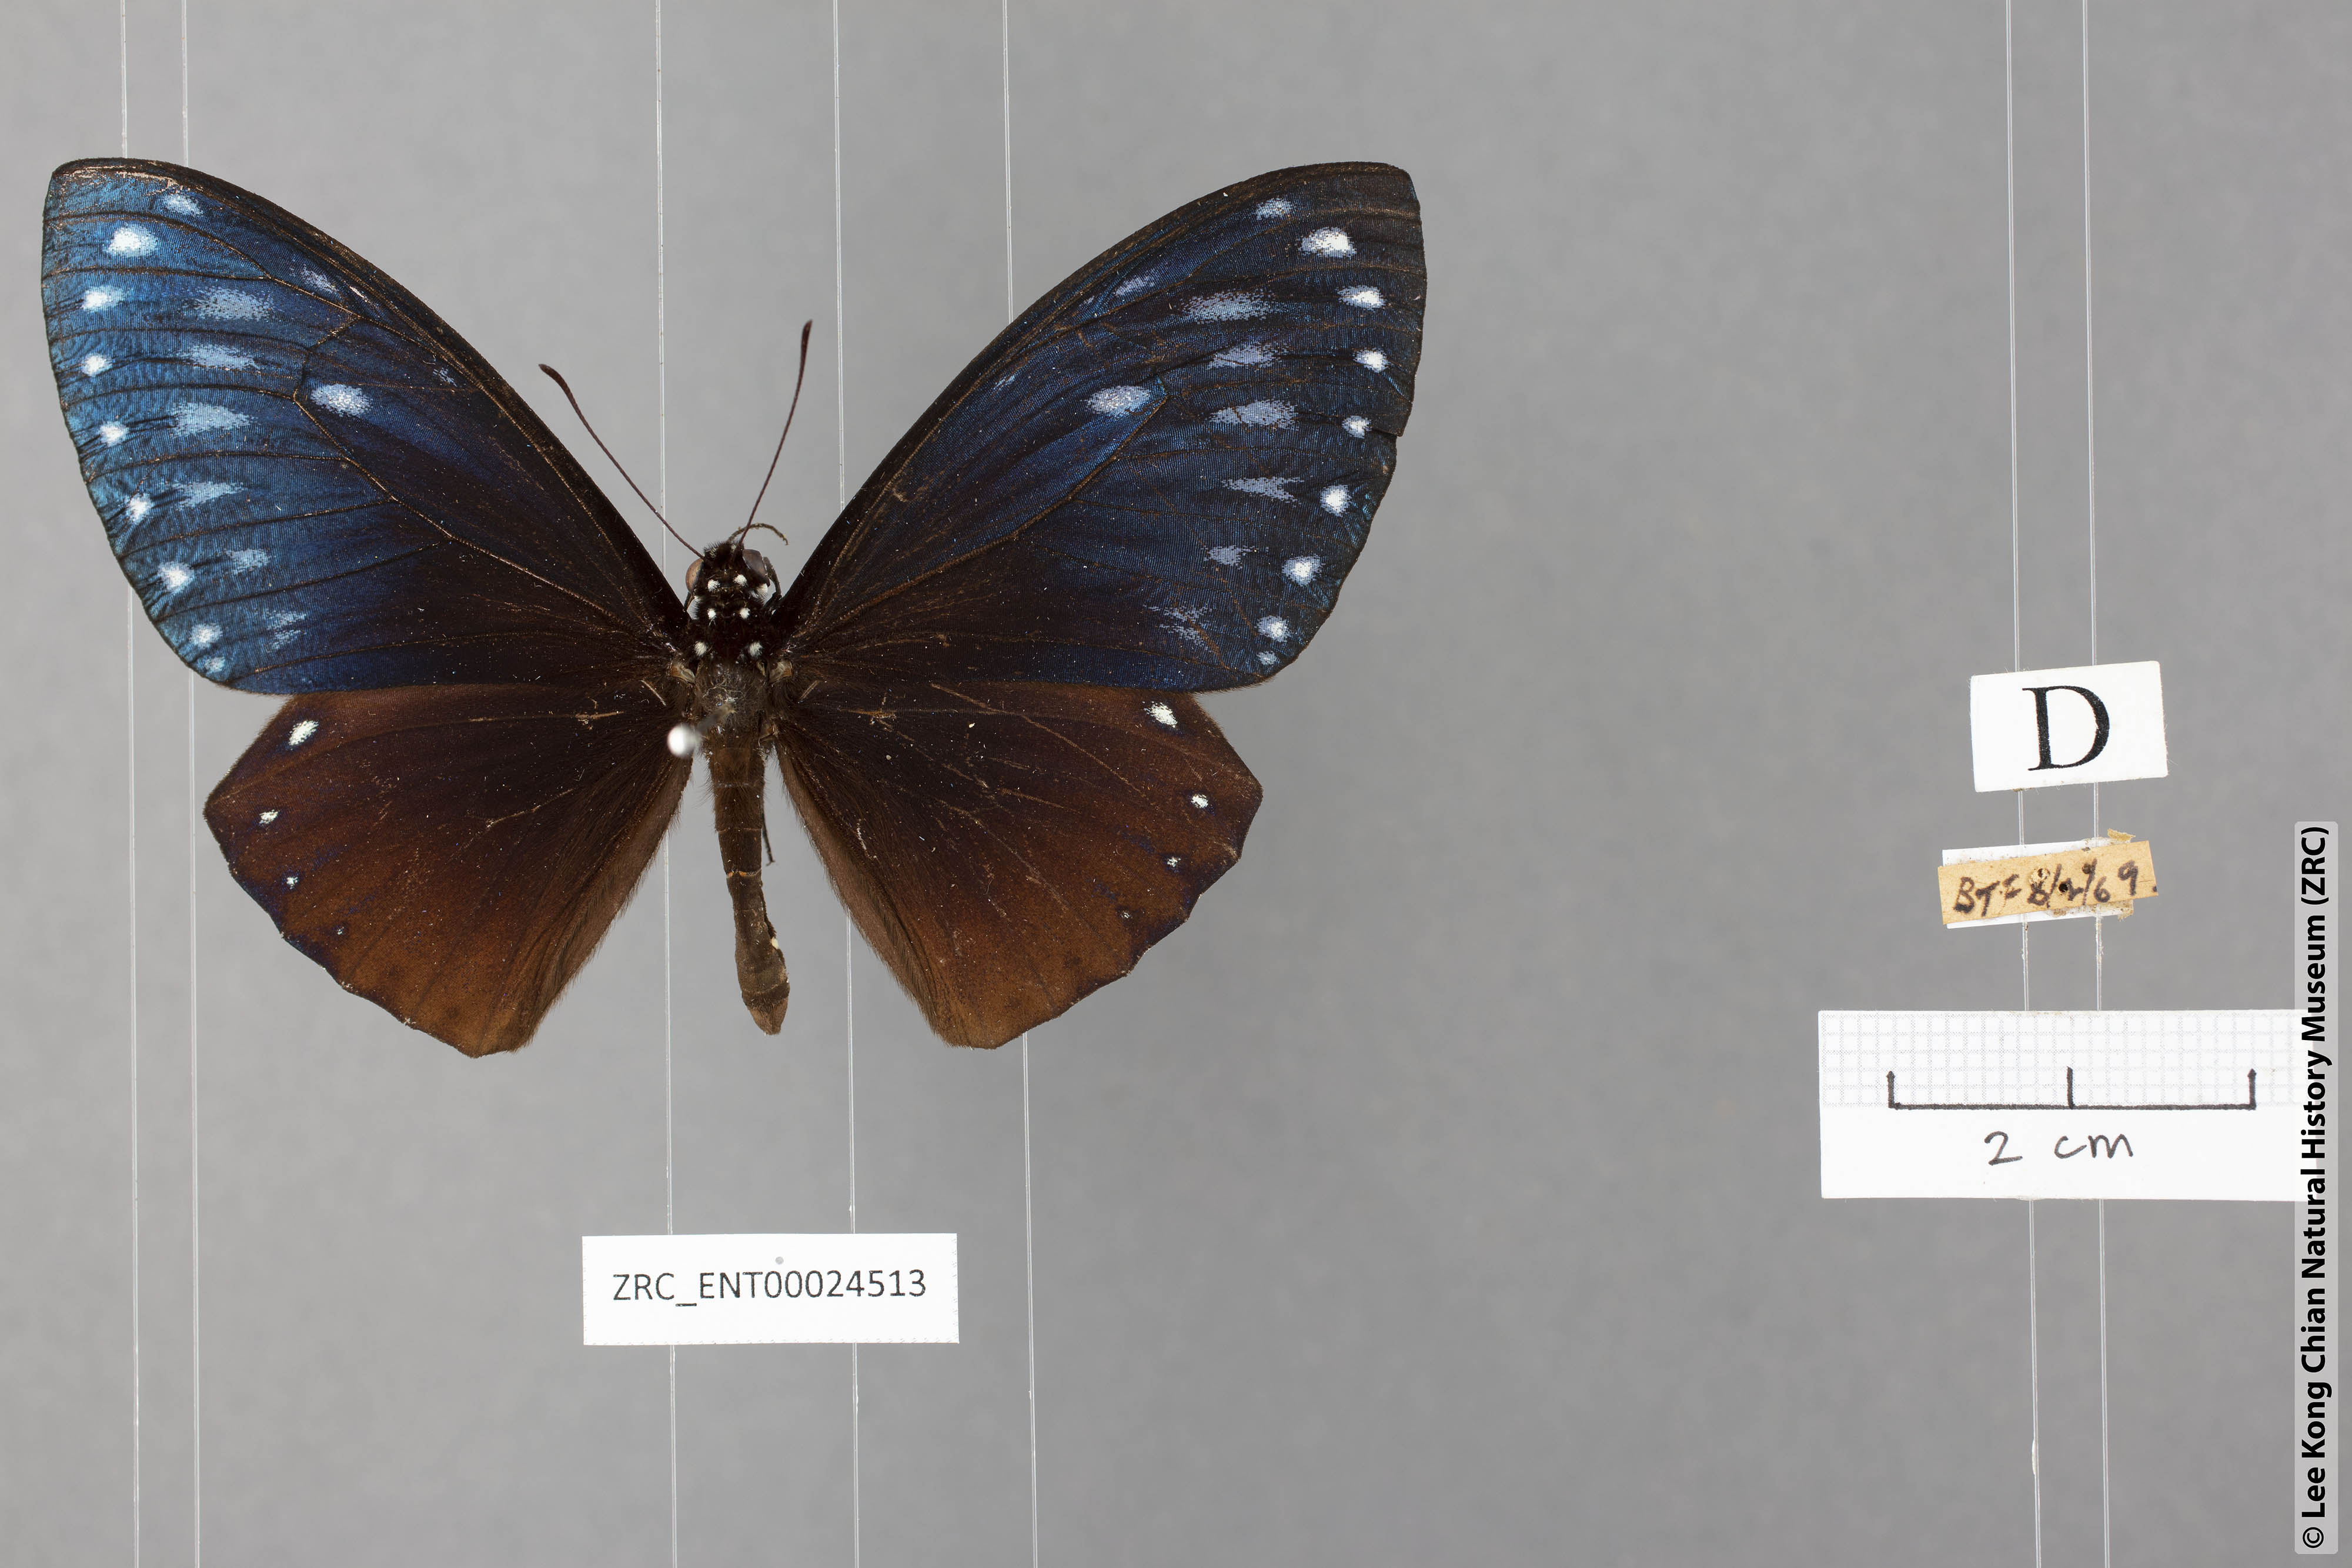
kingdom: Animalia
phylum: Arthropoda
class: Insecta
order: Lepidoptera
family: Papilionidae
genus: Chilasa
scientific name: Chilasa paradoxa
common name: Great mime
